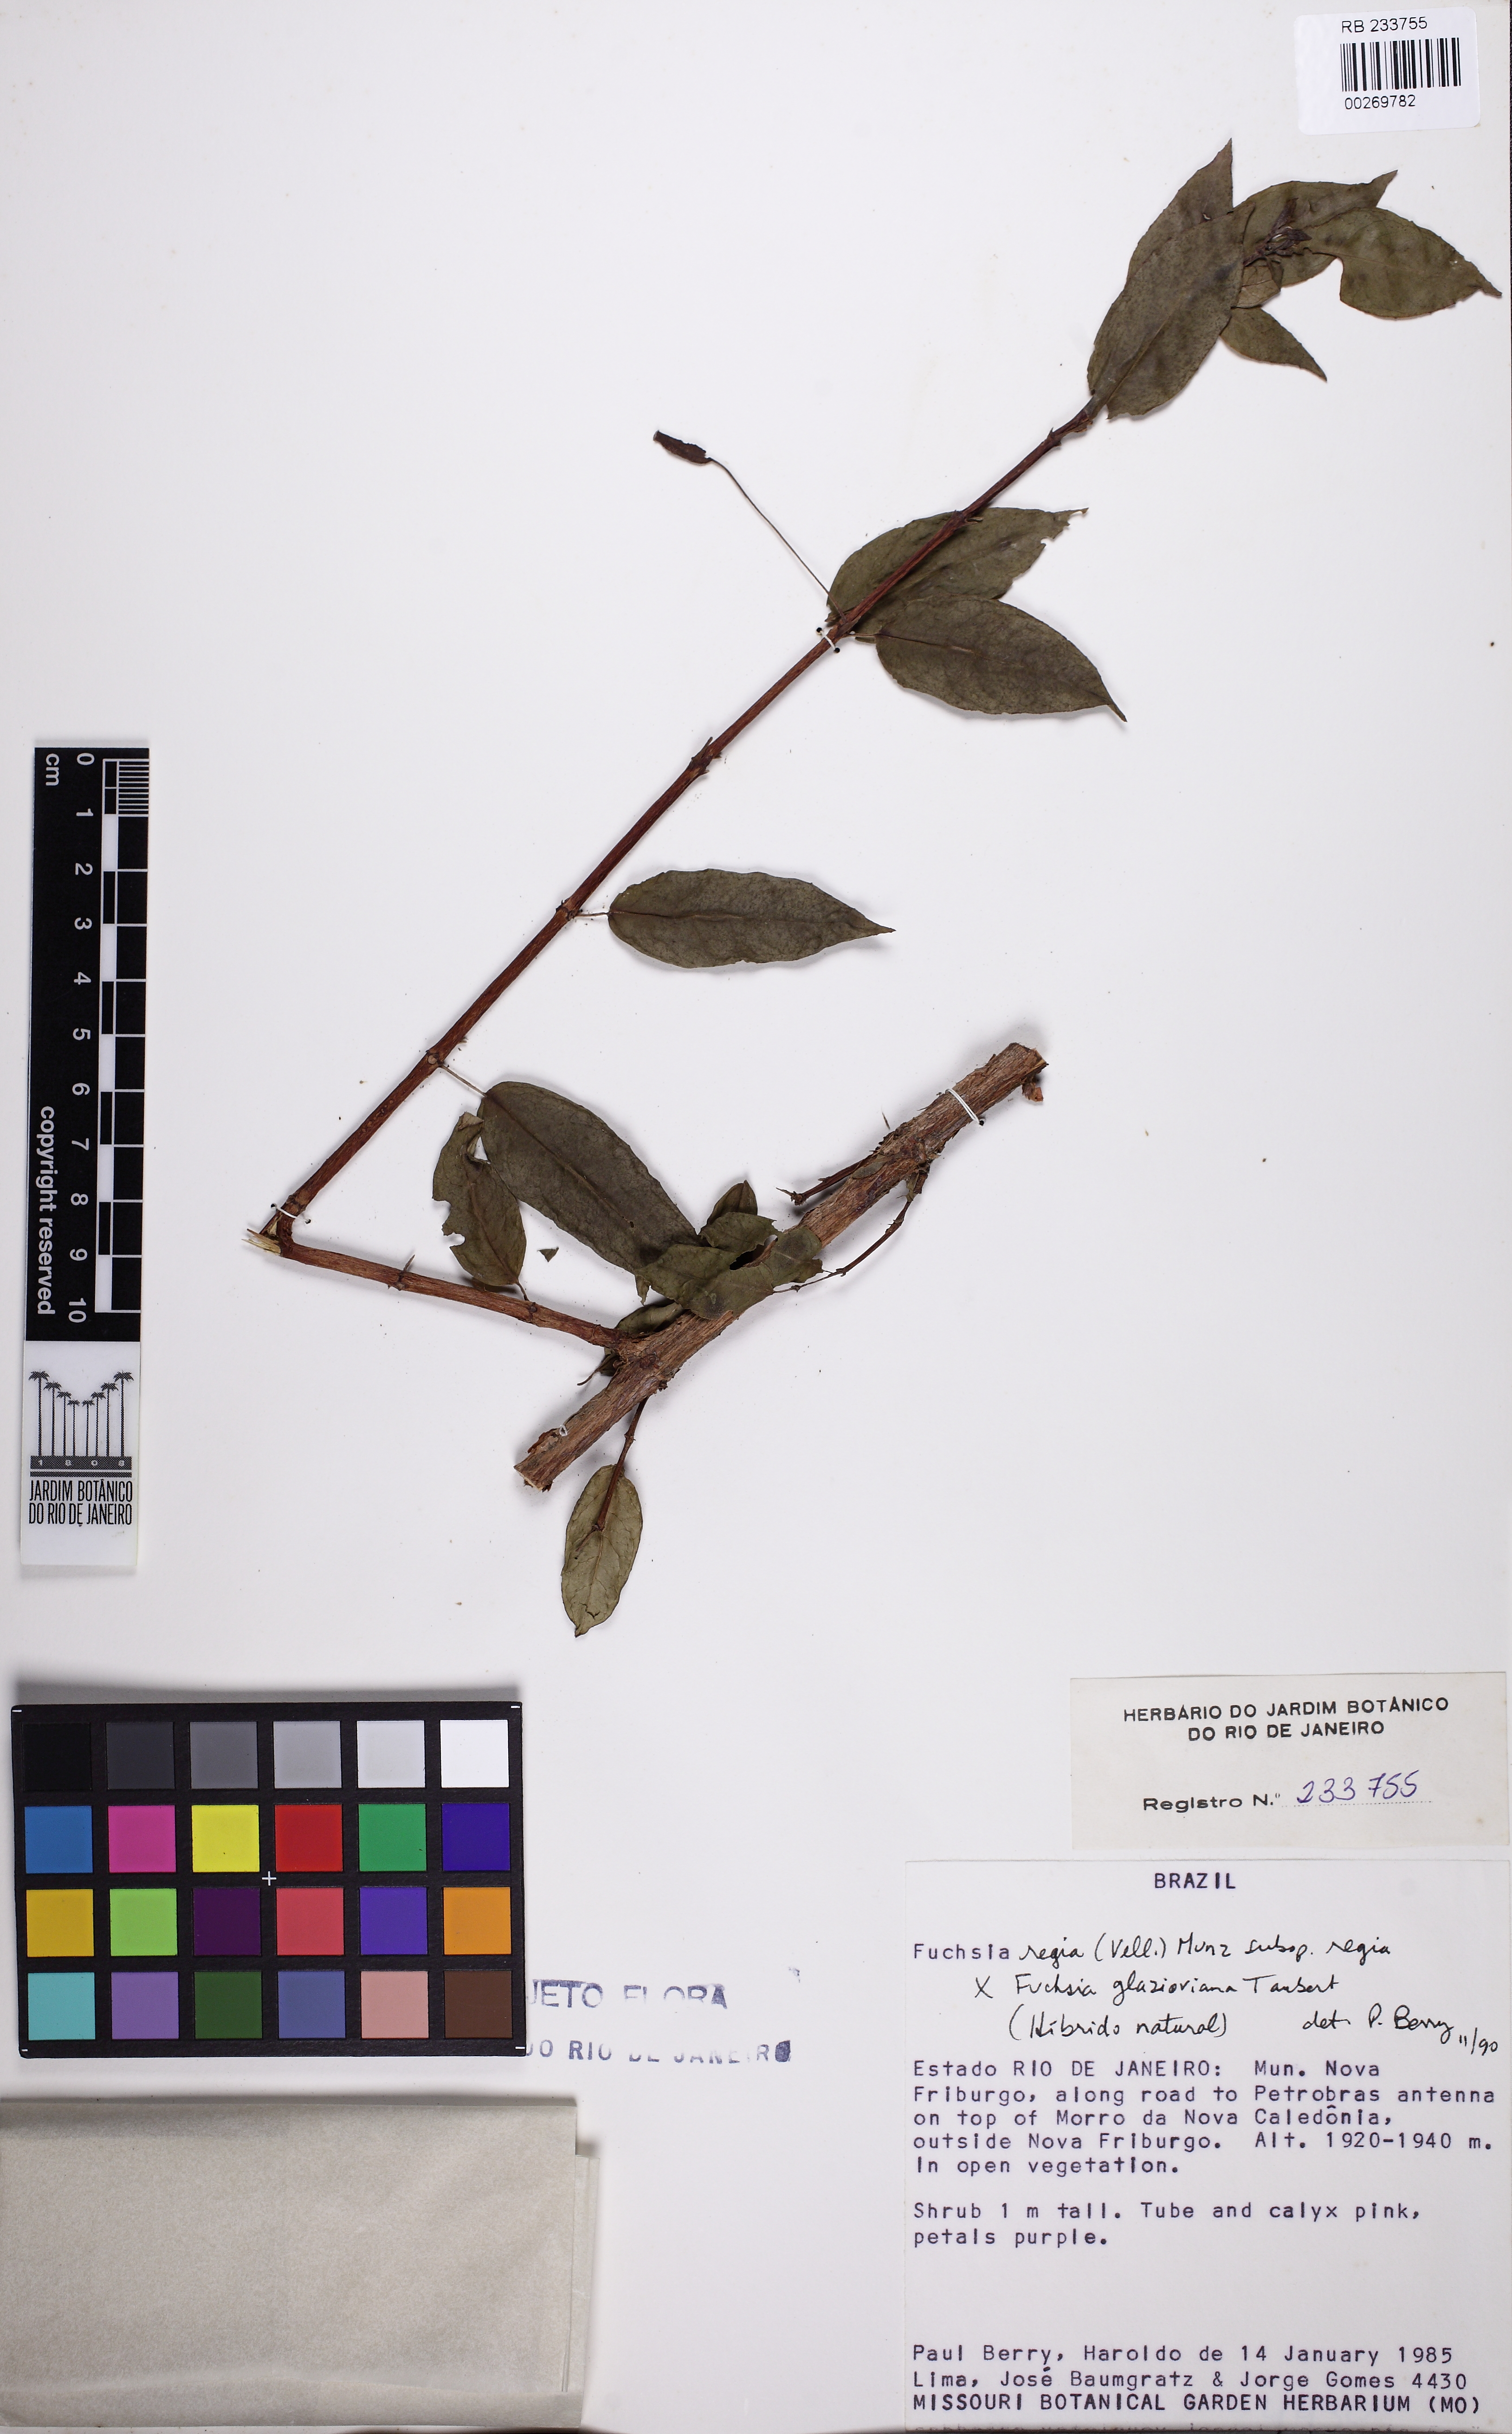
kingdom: Plantae
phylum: Tracheophyta
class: Magnoliopsida
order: Myrtales
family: Onagraceae
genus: Fuchsia
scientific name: Fuchsia regia
